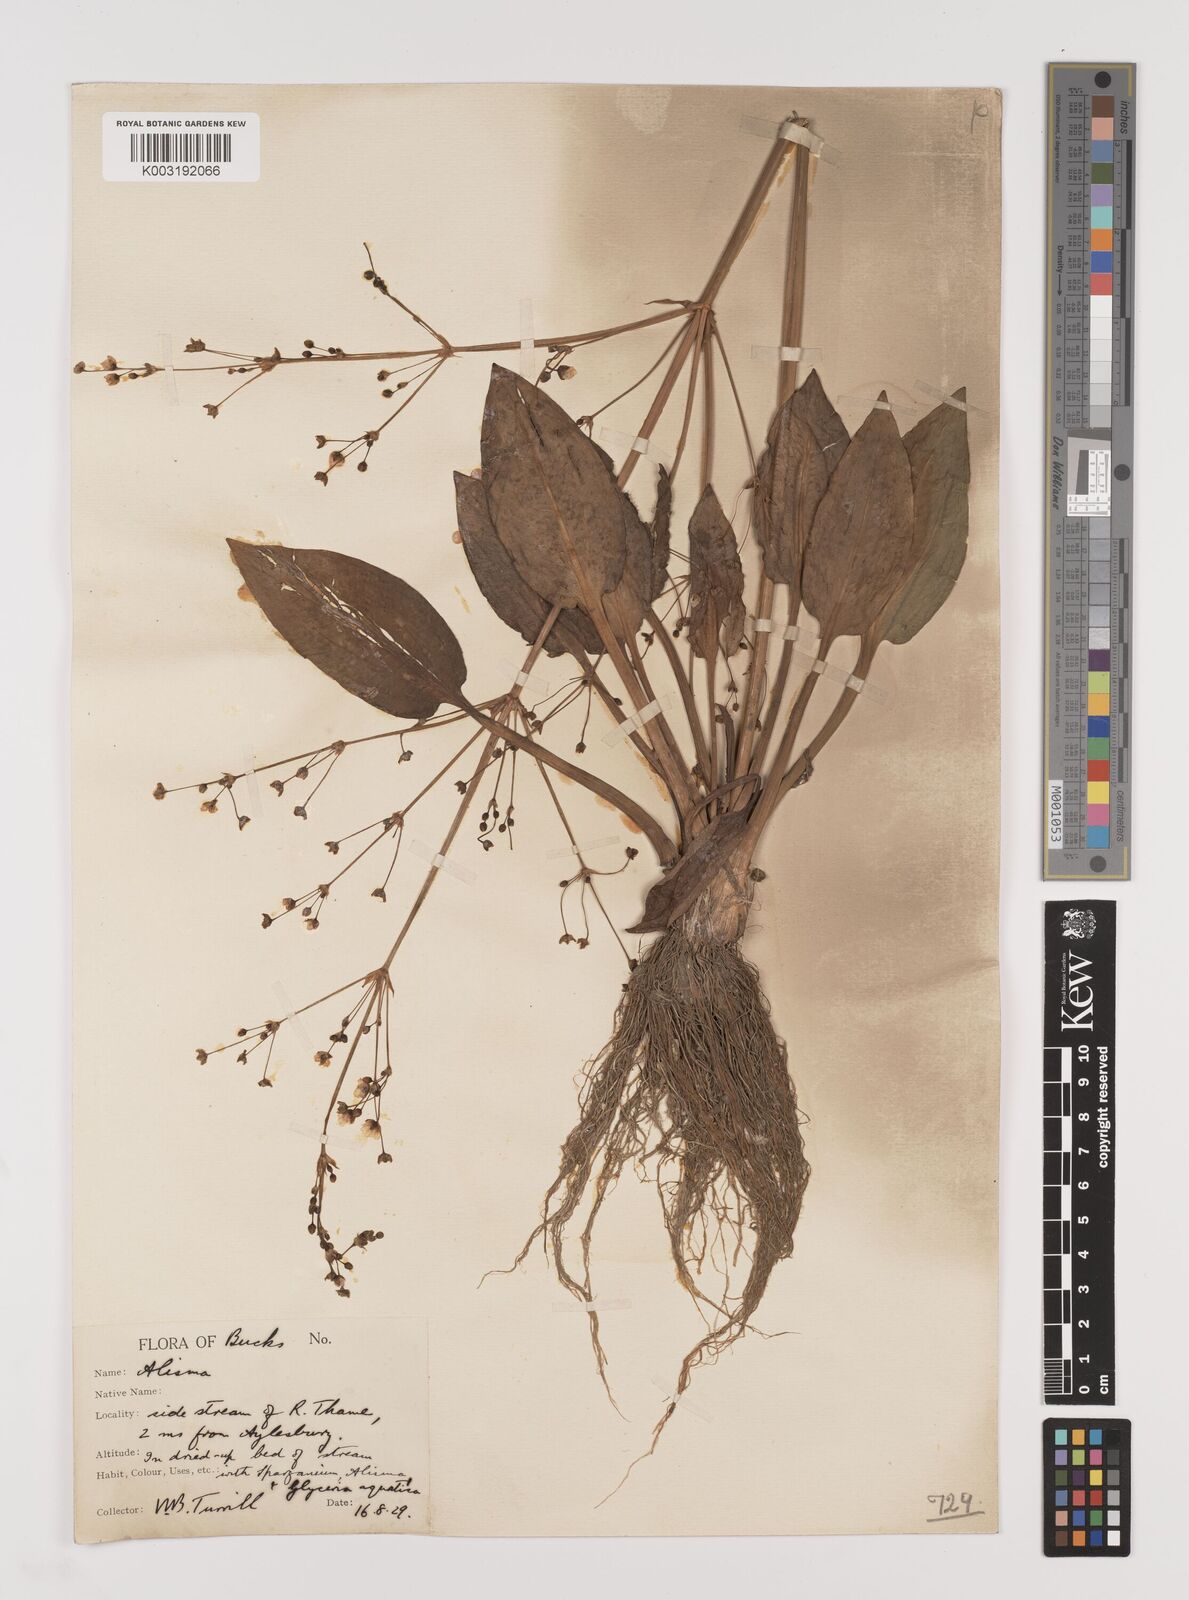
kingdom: Plantae
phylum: Tracheophyta
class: Liliopsida
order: Alismatales
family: Alismataceae
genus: Alisma
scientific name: Alisma plantago-aquatica
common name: Water-plantain
